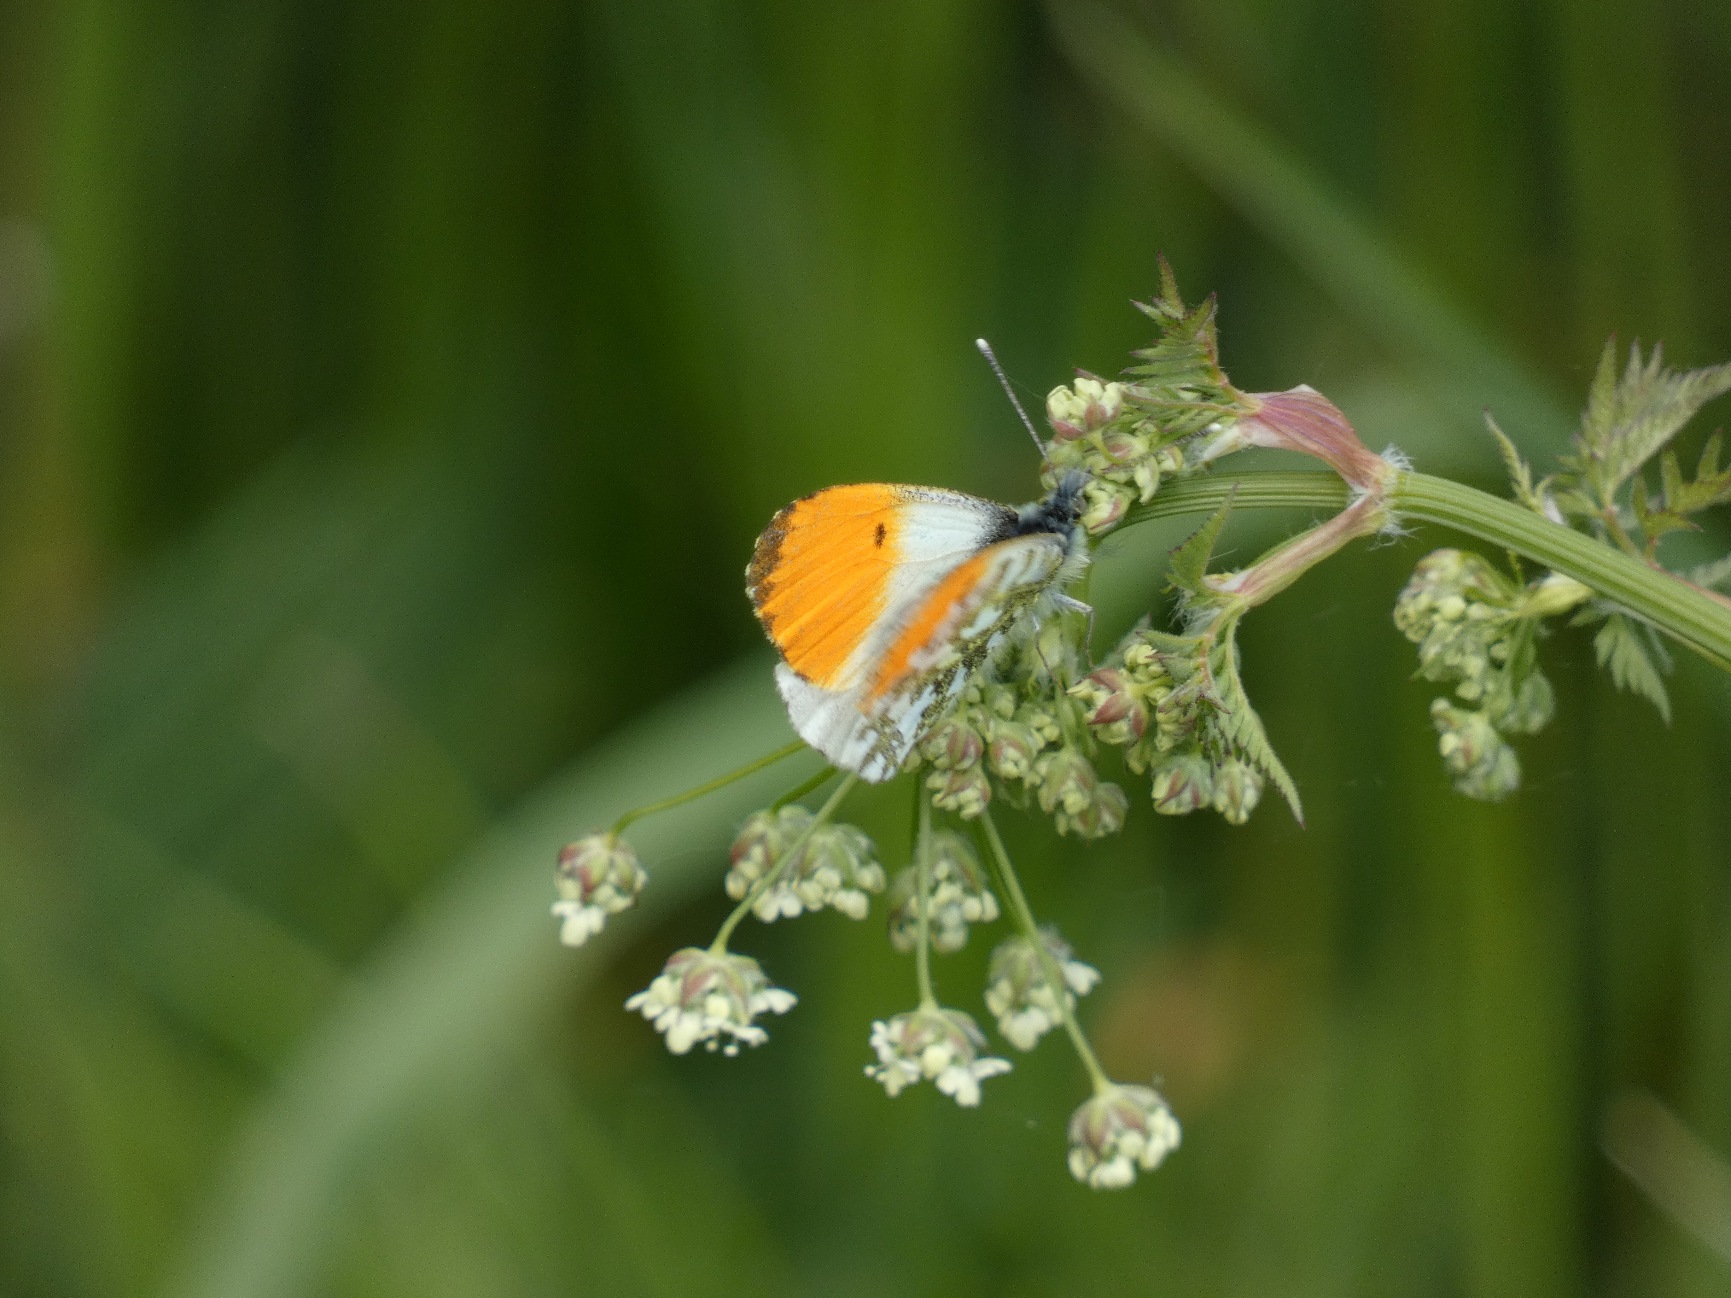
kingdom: Animalia
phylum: Arthropoda
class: Insecta
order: Lepidoptera
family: Pieridae
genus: Anthocharis
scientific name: Anthocharis cardamines
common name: Aurora
